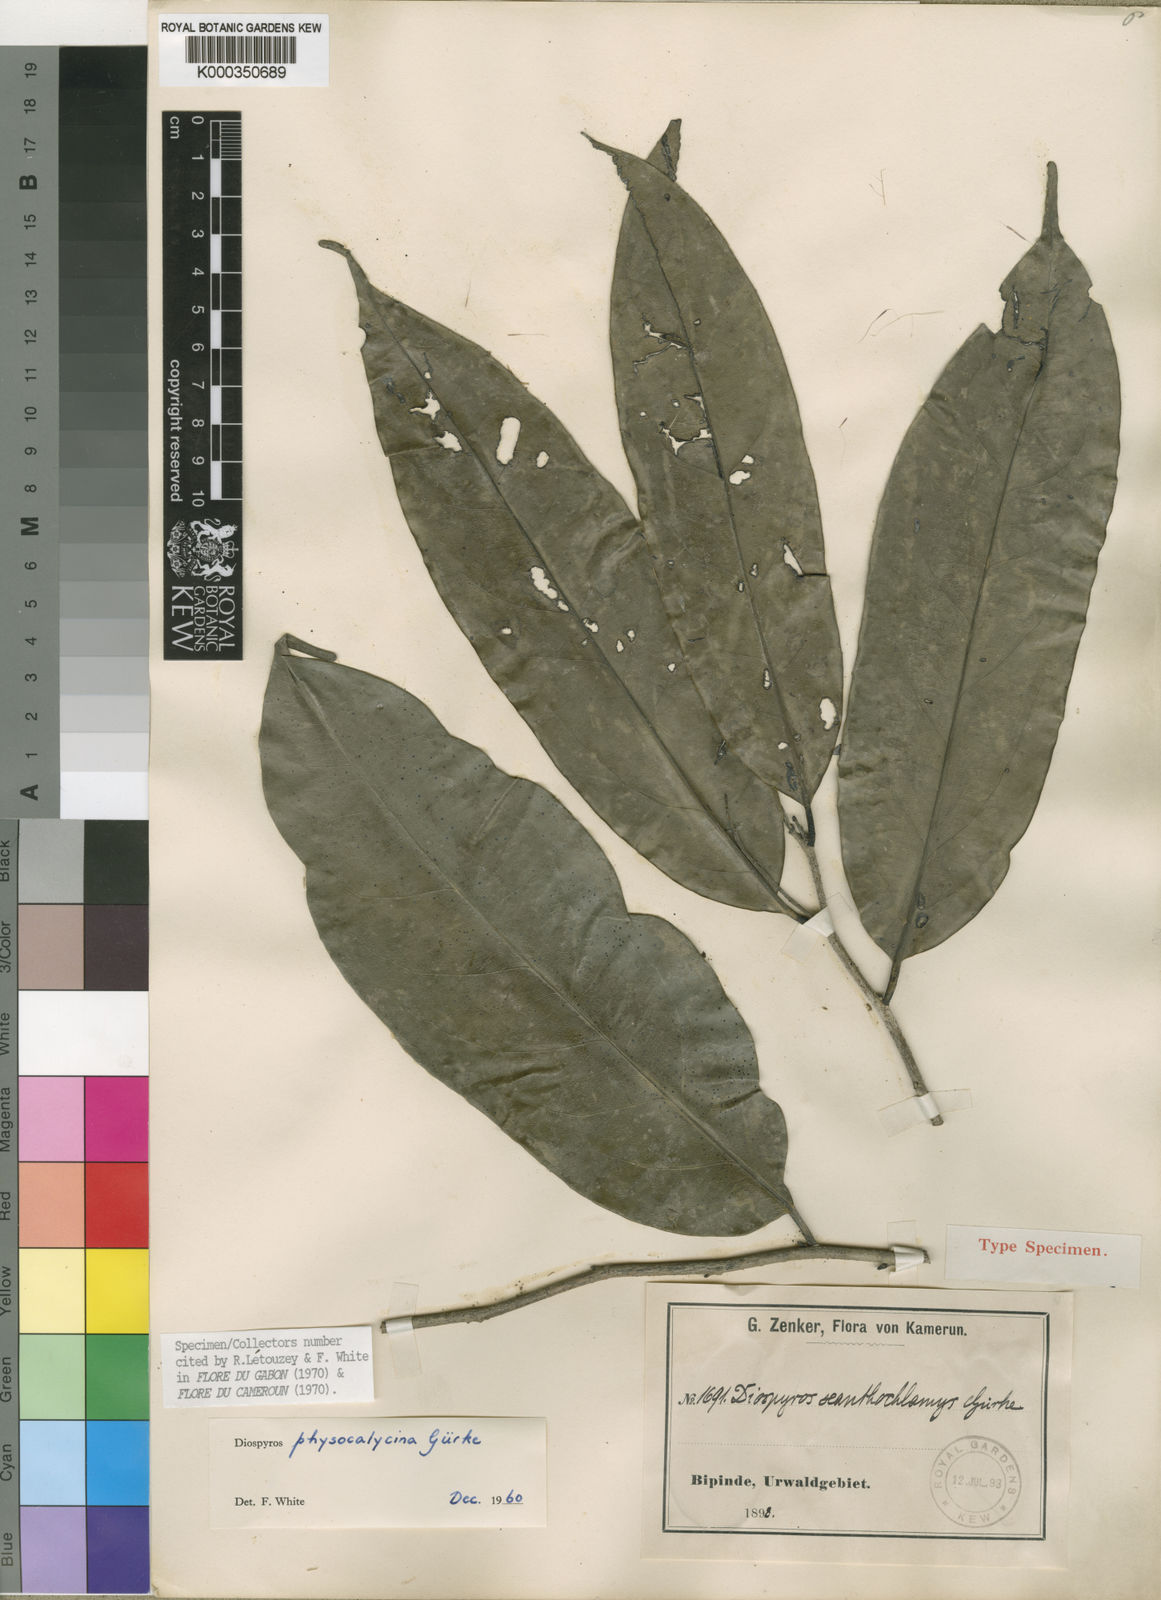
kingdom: Plantae
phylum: Tracheophyta
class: Magnoliopsida
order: Ericales
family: Ebenaceae
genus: Diospyros
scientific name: Diospyros
